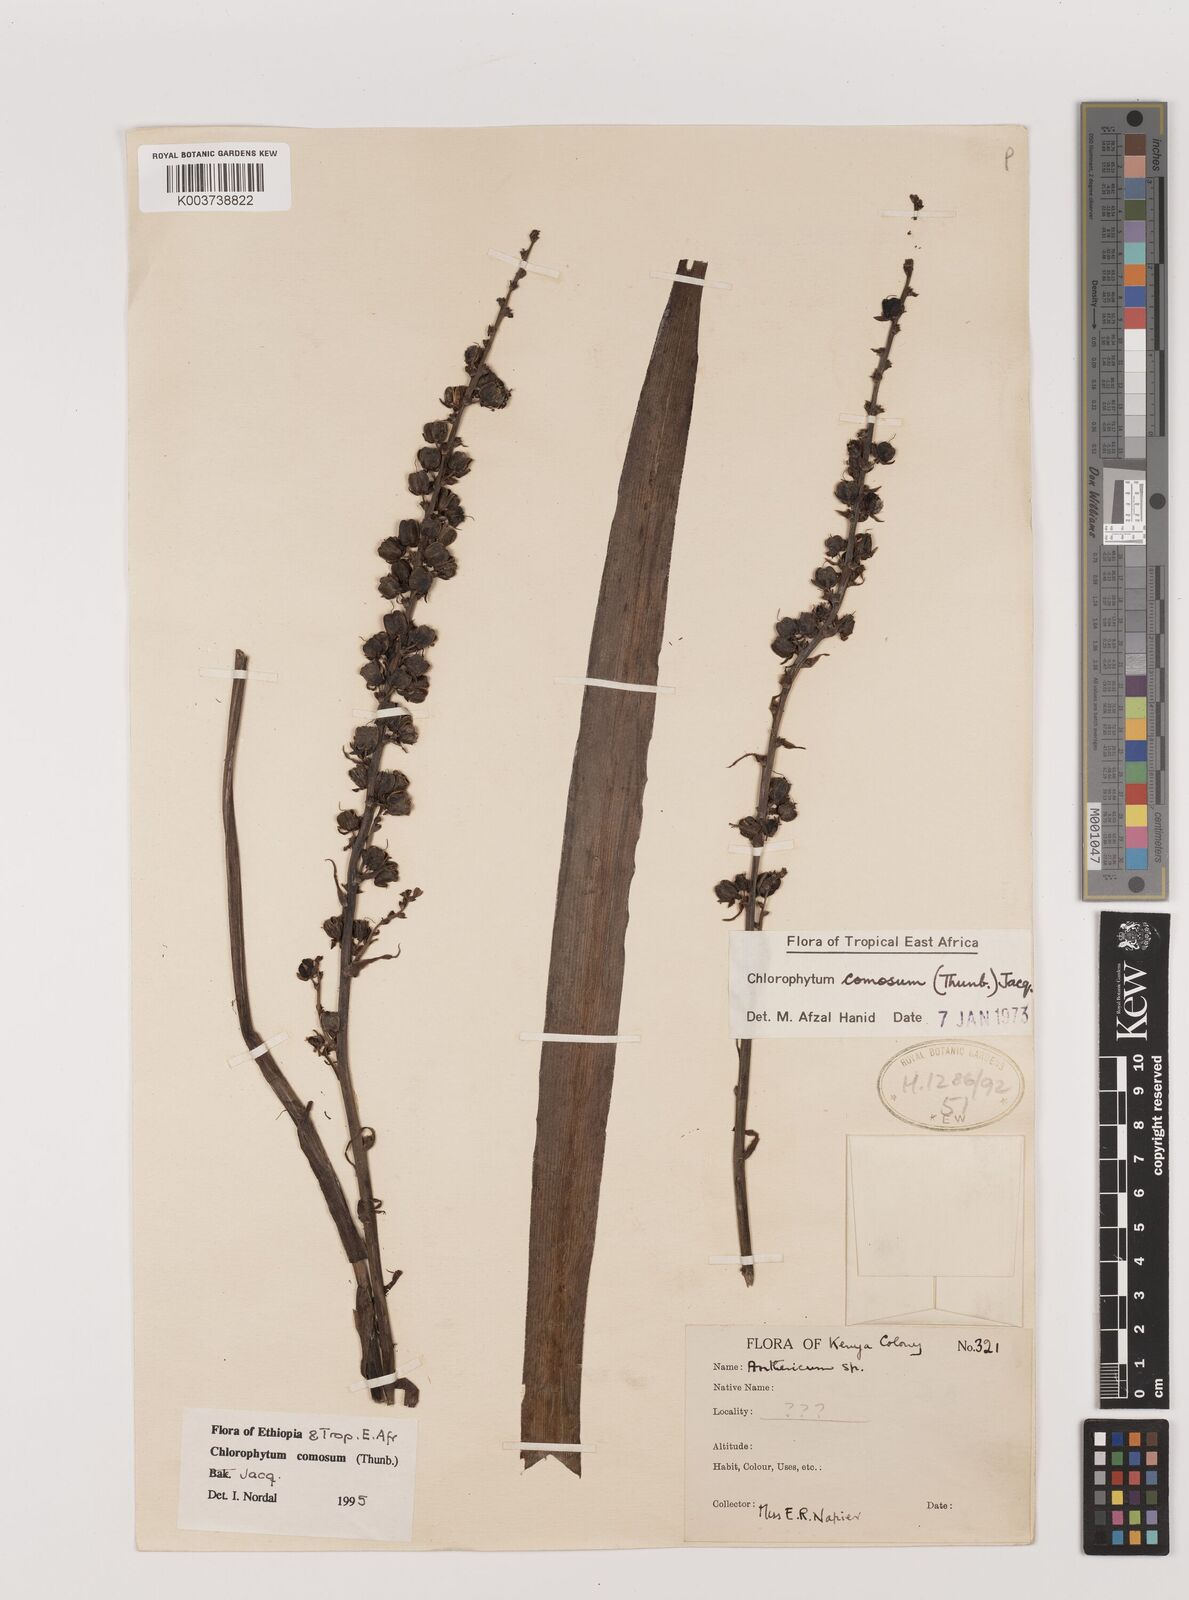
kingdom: Plantae
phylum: Tracheophyta
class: Liliopsida
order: Asparagales
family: Asparagaceae
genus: Chlorophytum
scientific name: Chlorophytum comosum
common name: Spider plant
